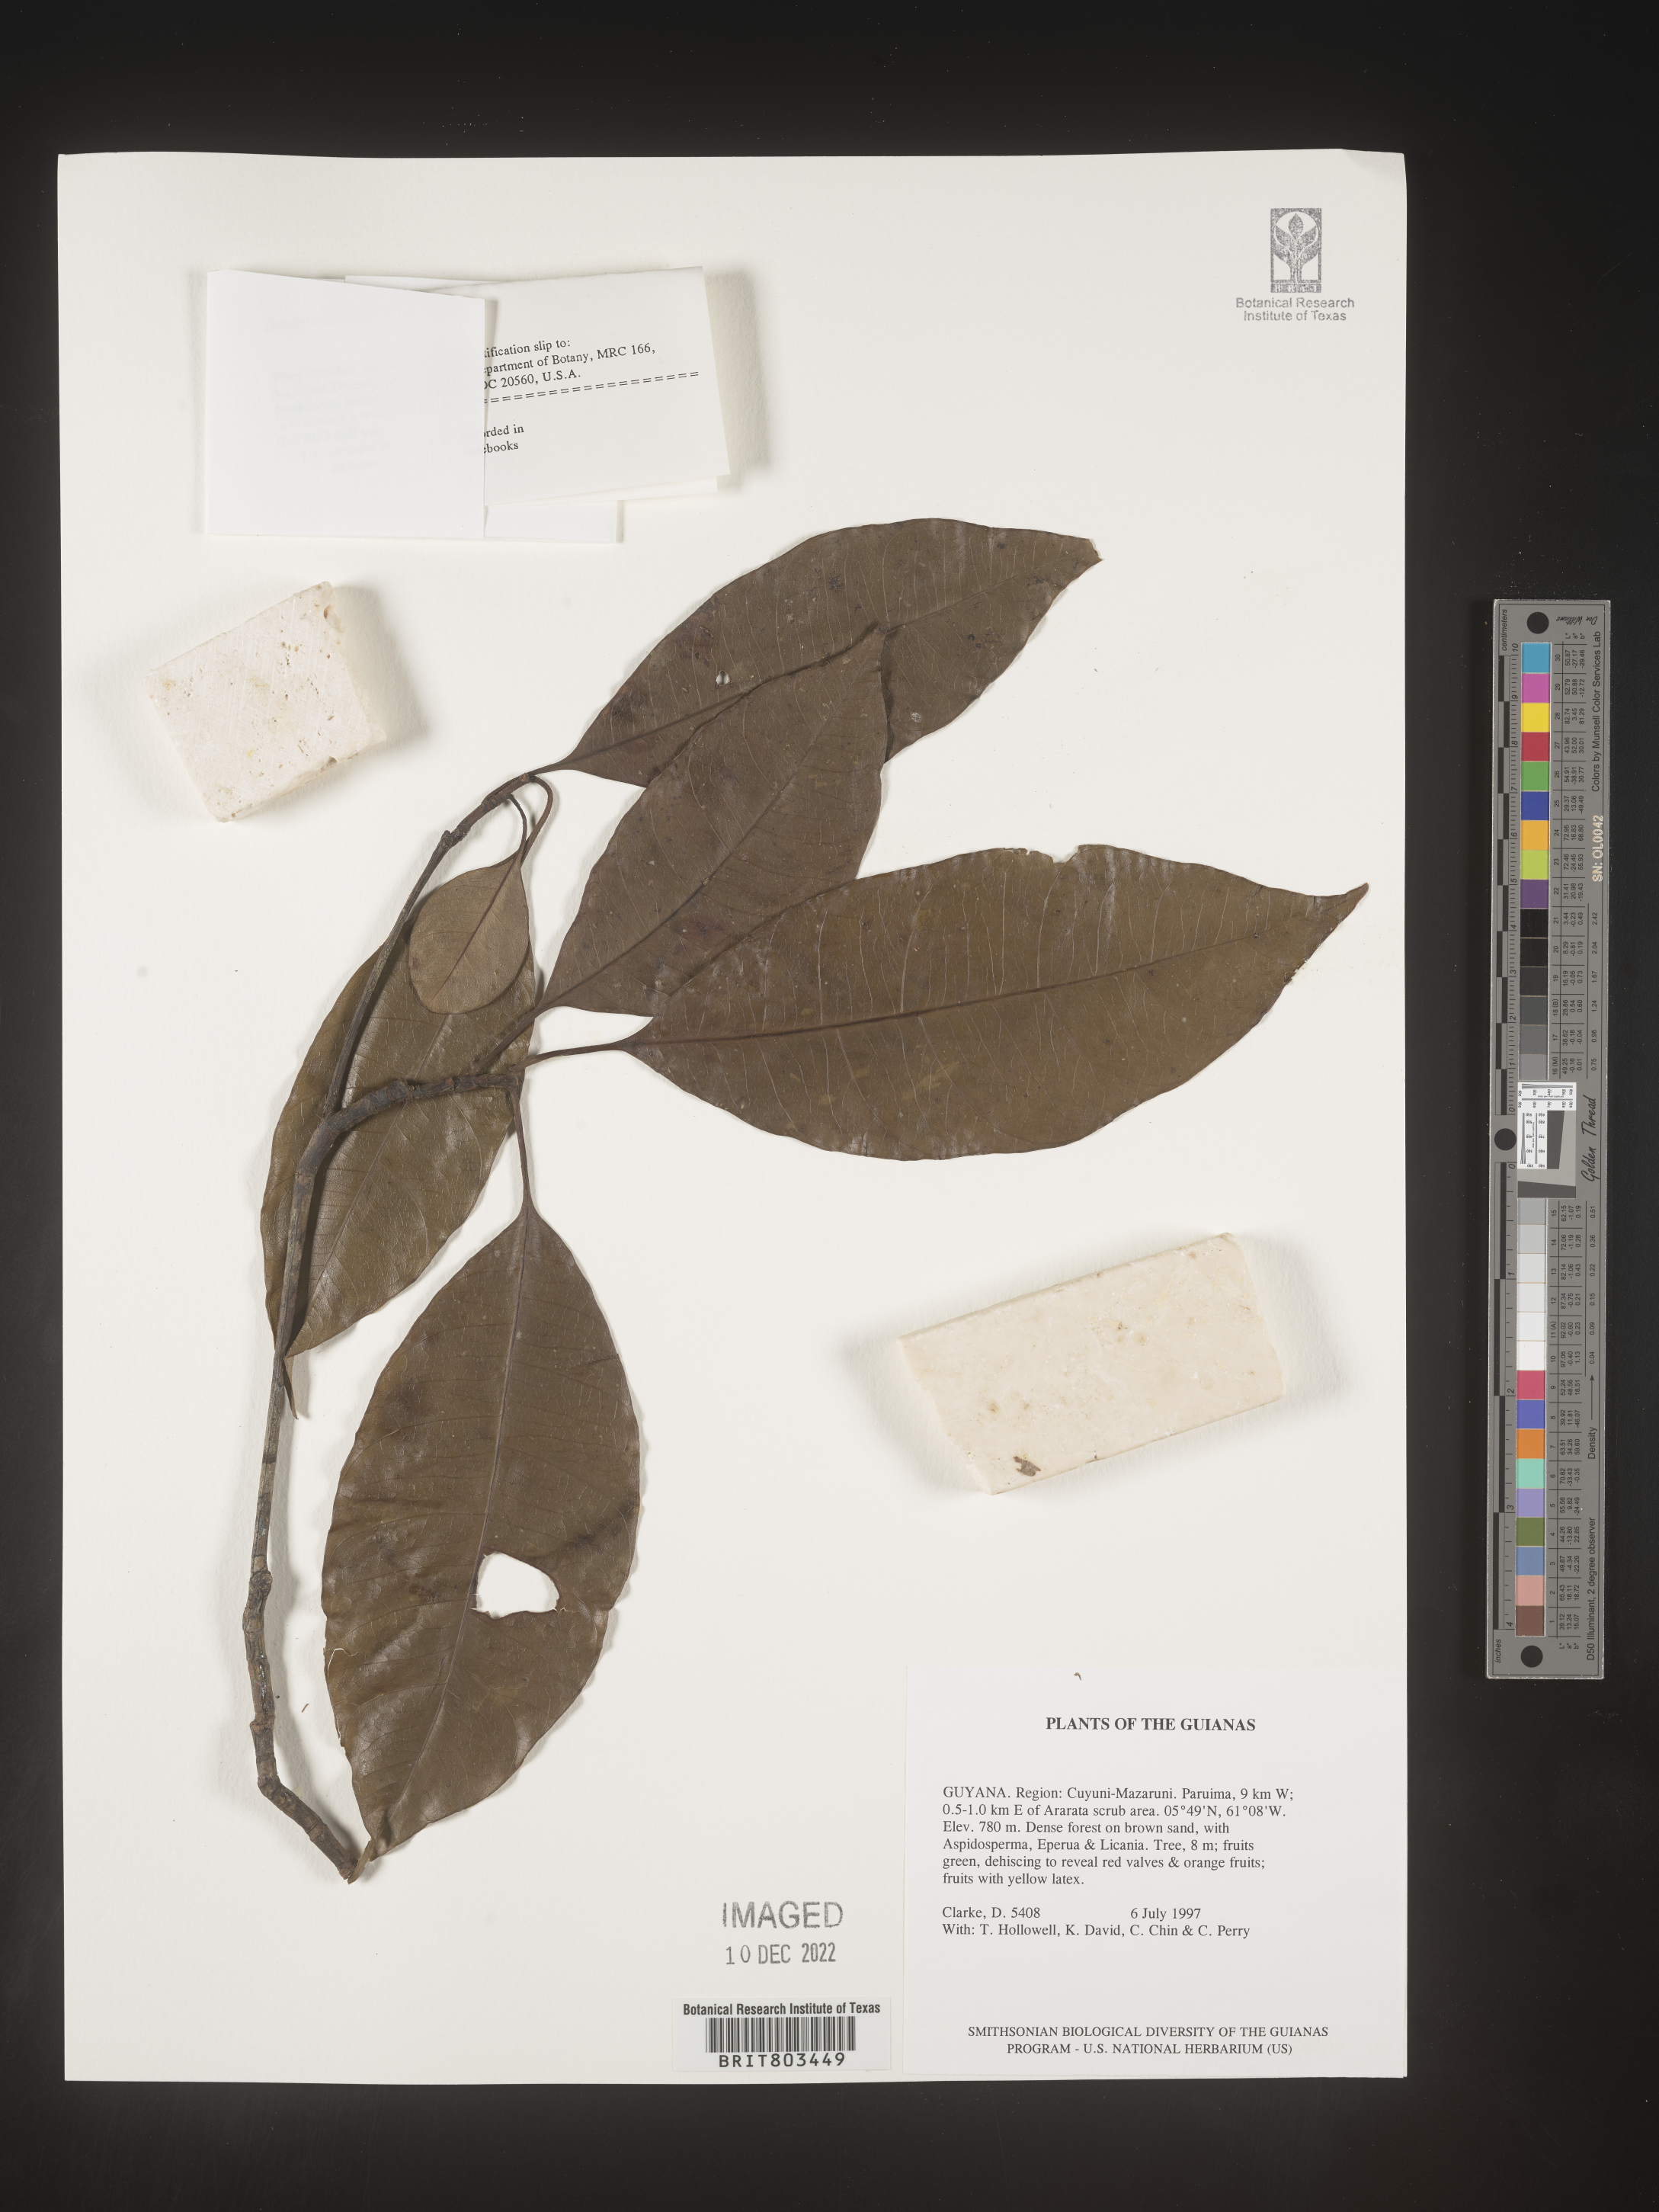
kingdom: Plantae
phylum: Tracheophyta
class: Magnoliopsida
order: Malpighiales
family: Clusiaceae
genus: Tovomita
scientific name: Tovomita
